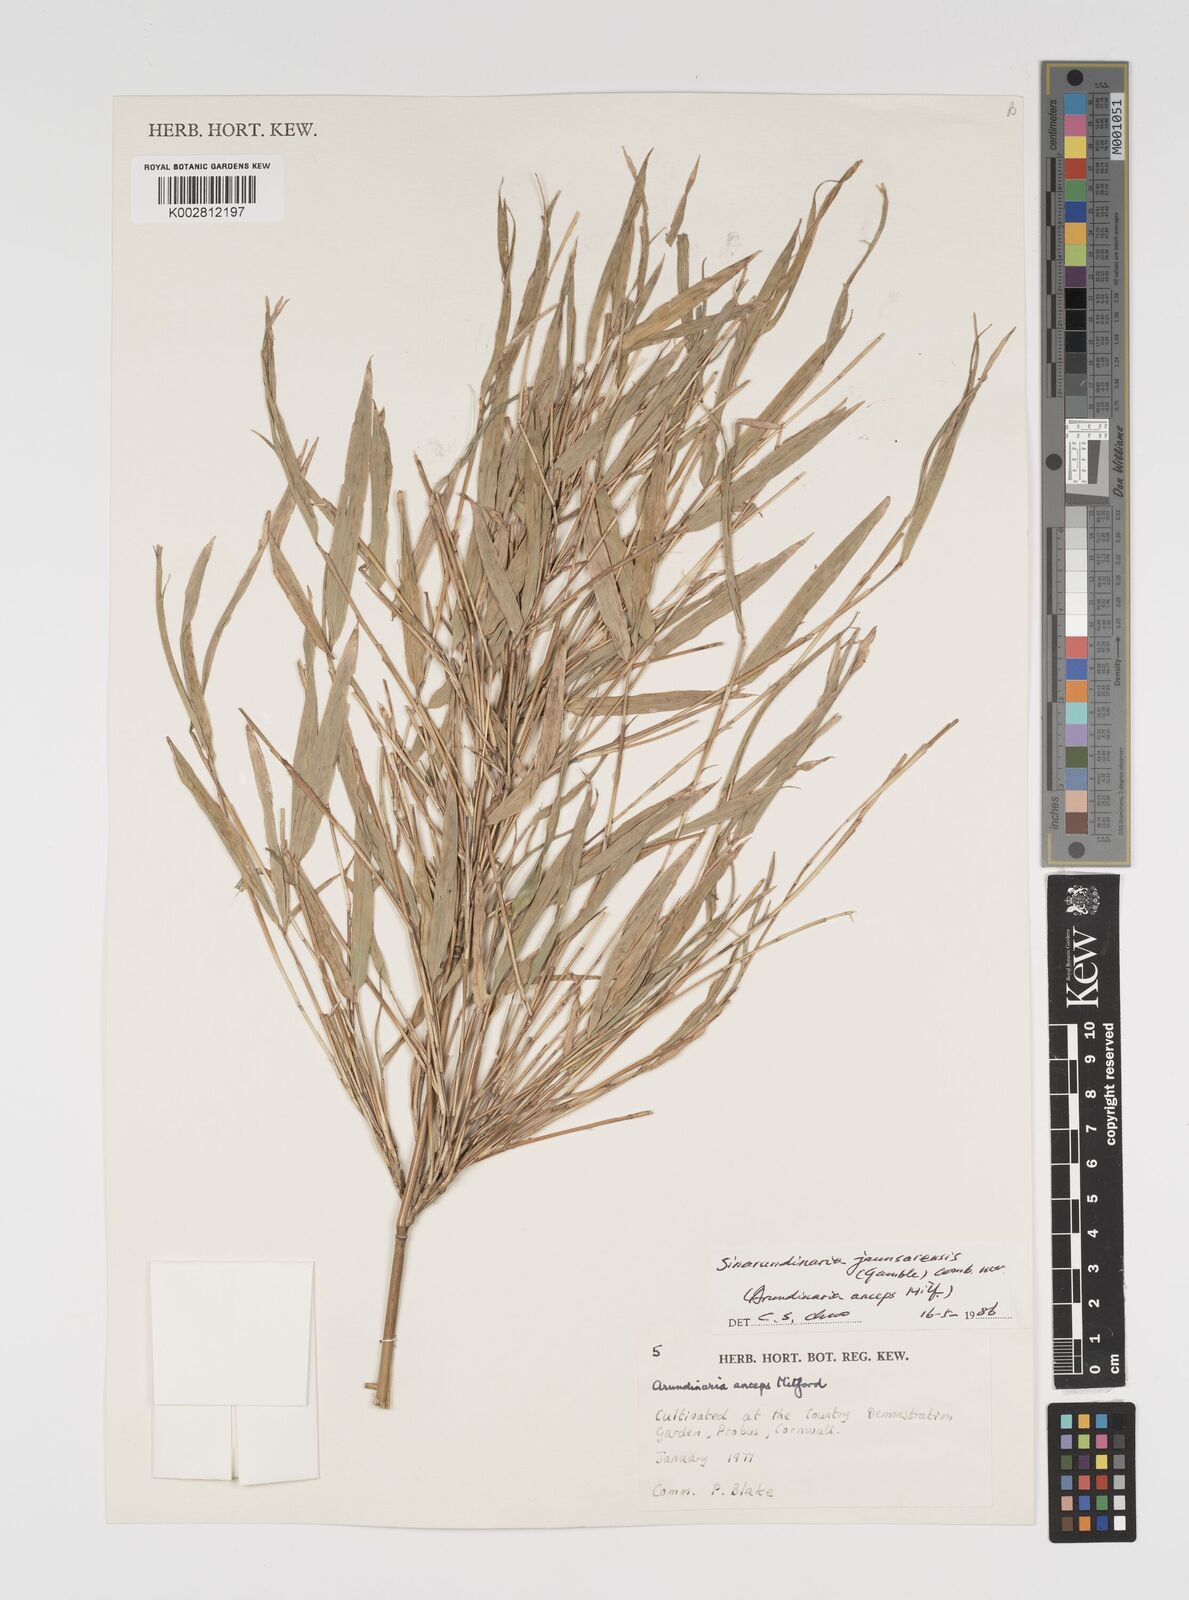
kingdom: Plantae
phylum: Tracheophyta
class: Liliopsida
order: Poales
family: Poaceae
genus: Yushania
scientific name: Yushania anceps
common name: Indian fountain-bamboo
